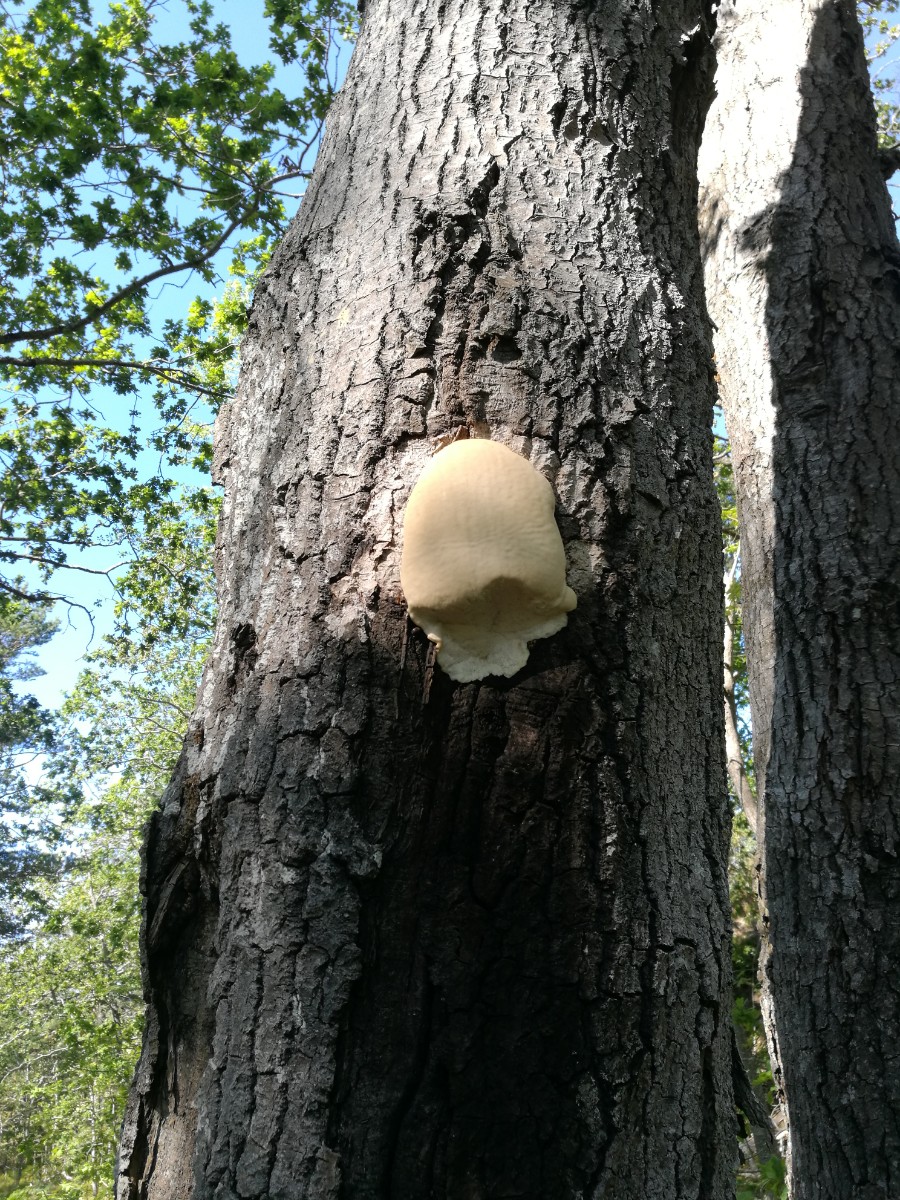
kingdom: Fungi
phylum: Basidiomycota
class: Agaricomycetes
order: Polyporales
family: Meruliaceae
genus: Pappia
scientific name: Pappia fissilis
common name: sej fedtporesvamp
